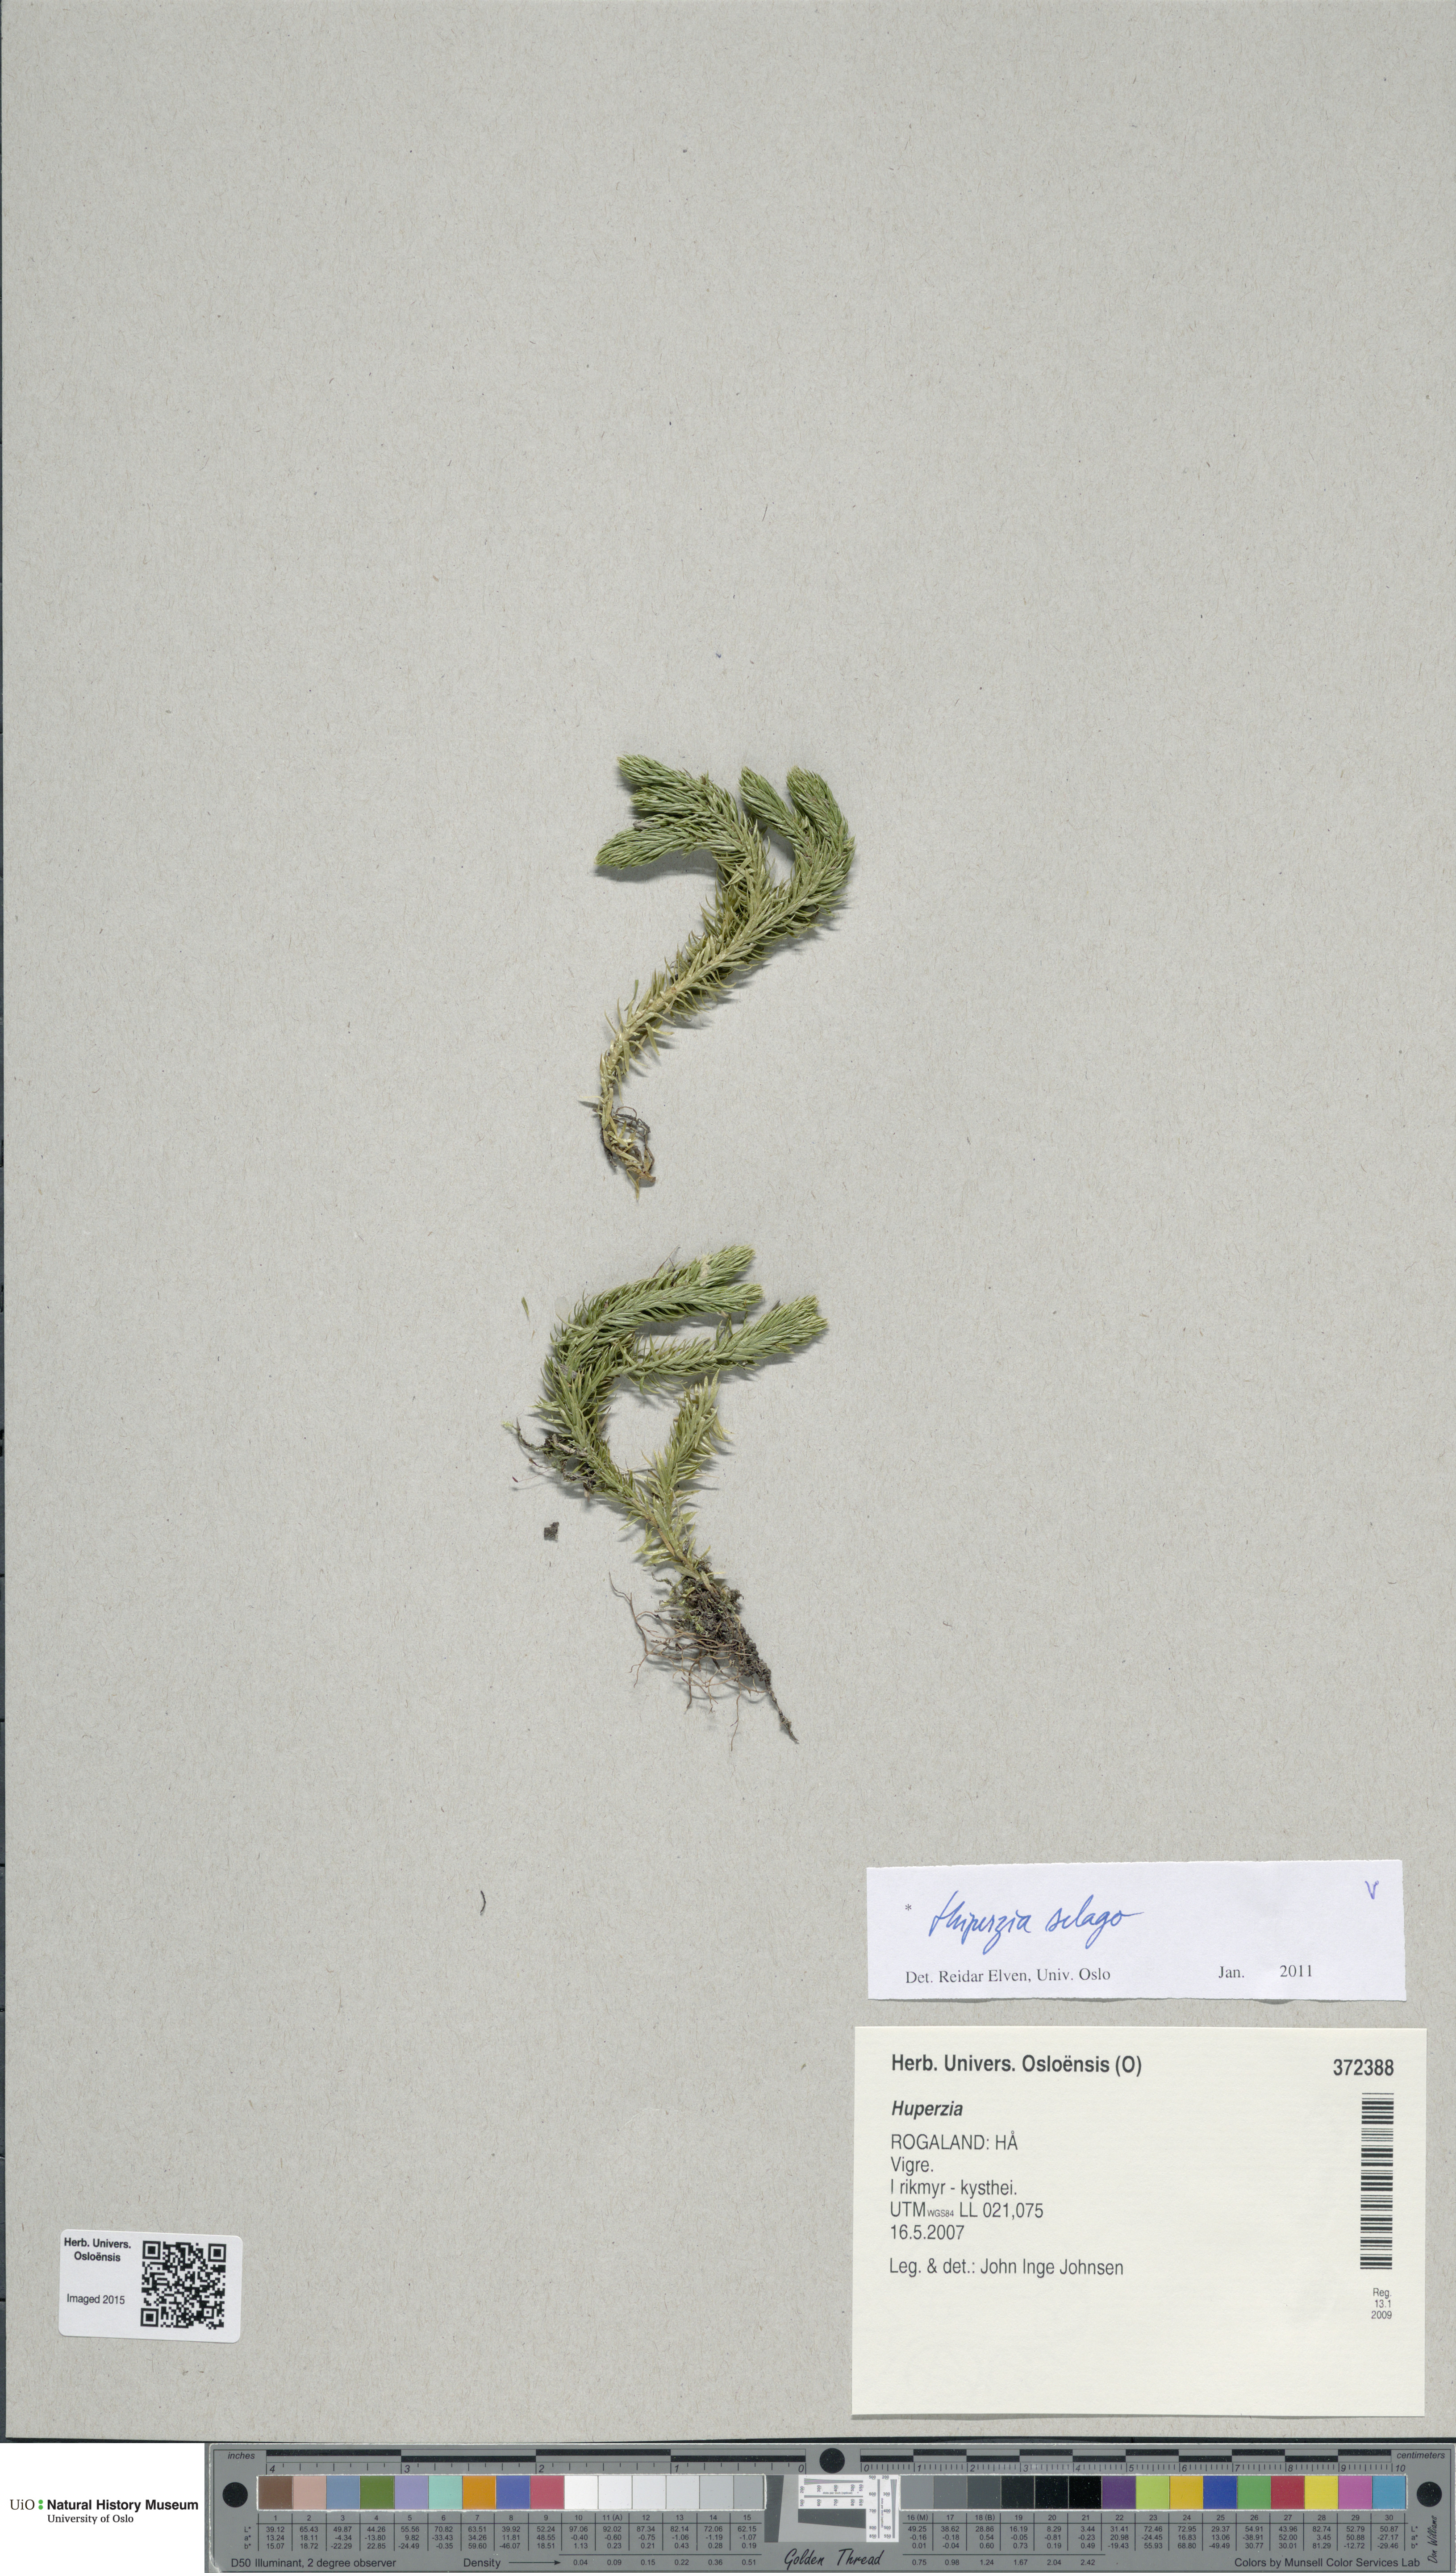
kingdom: Plantae
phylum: Tracheophyta
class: Lycopodiopsida
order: Lycopodiales
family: Lycopodiaceae
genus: Huperzia
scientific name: Huperzia selago
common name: Northern firmoss
